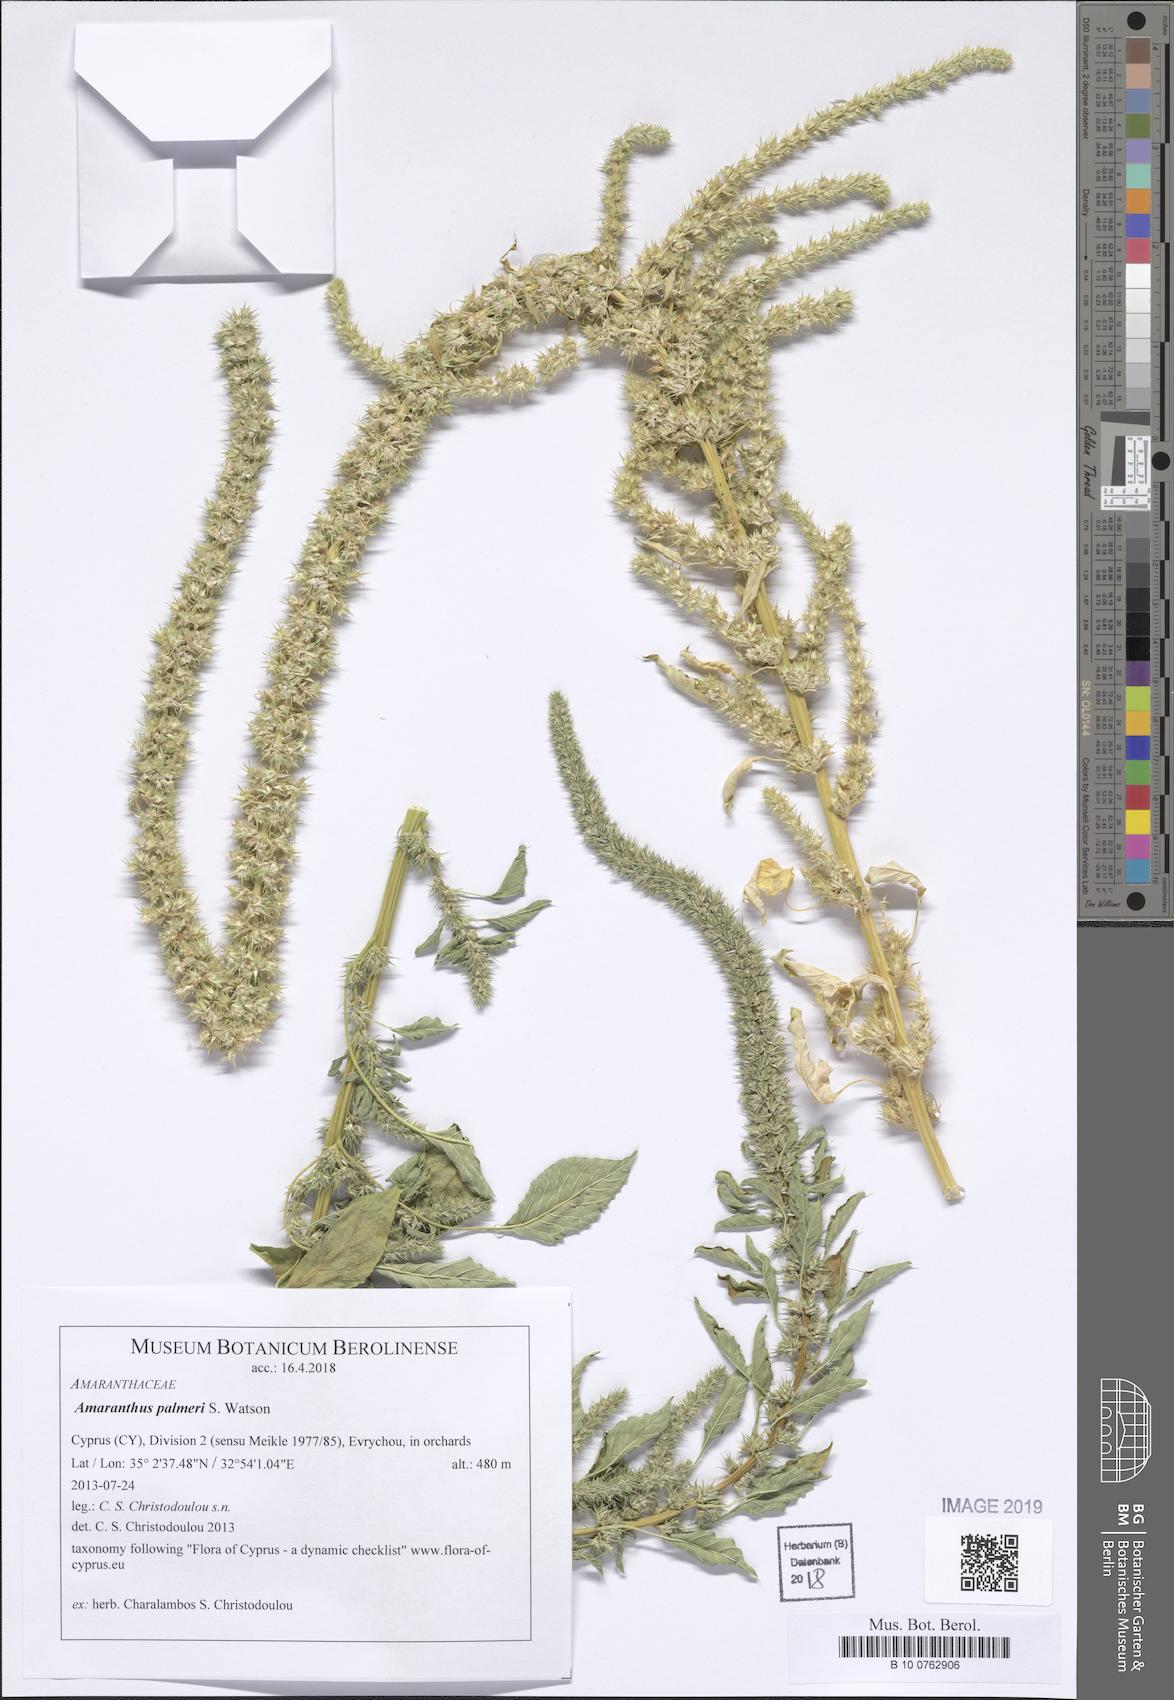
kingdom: Plantae
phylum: Tracheophyta
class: Magnoliopsida
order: Caryophyllales
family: Amaranthaceae
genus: Amaranthus
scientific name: Amaranthus palmeri
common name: Dioecious amaranth
